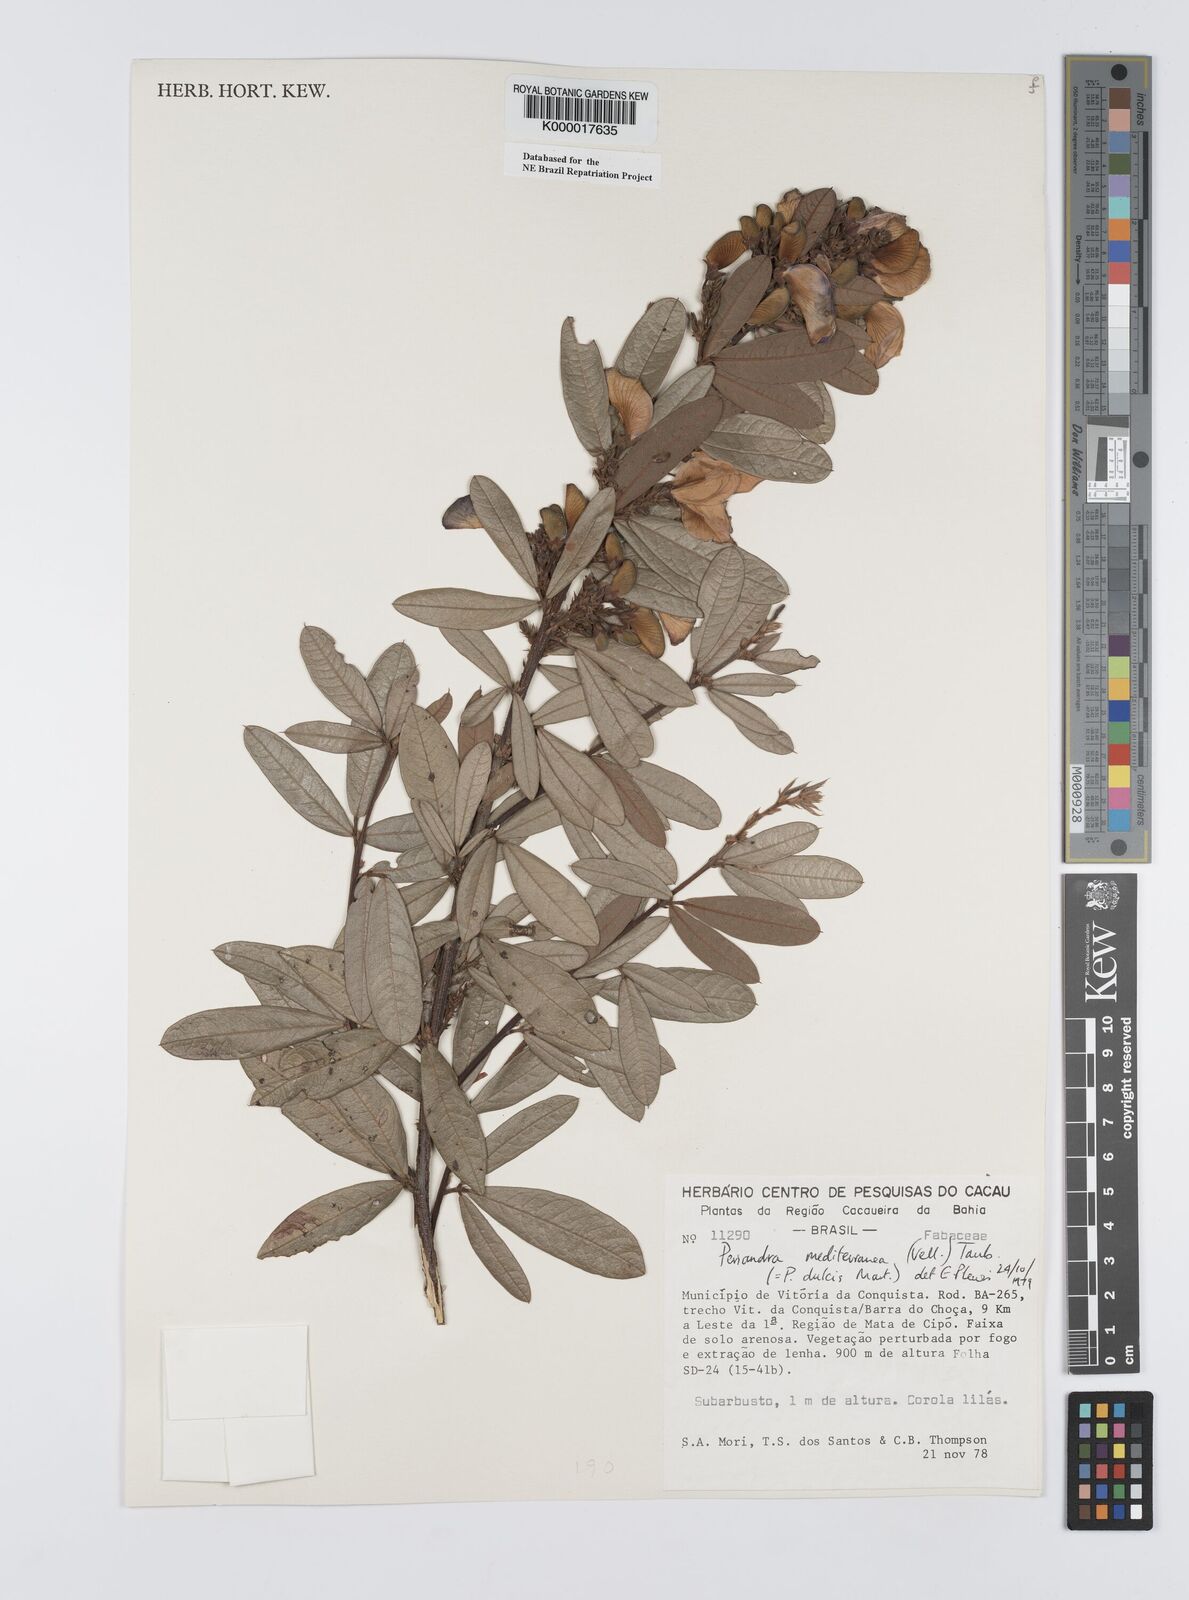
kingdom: Plantae
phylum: Tracheophyta
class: Magnoliopsida
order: Fabales
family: Fabaceae
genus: Periandra
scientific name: Periandra mediterranea
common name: Brazilian licorice
